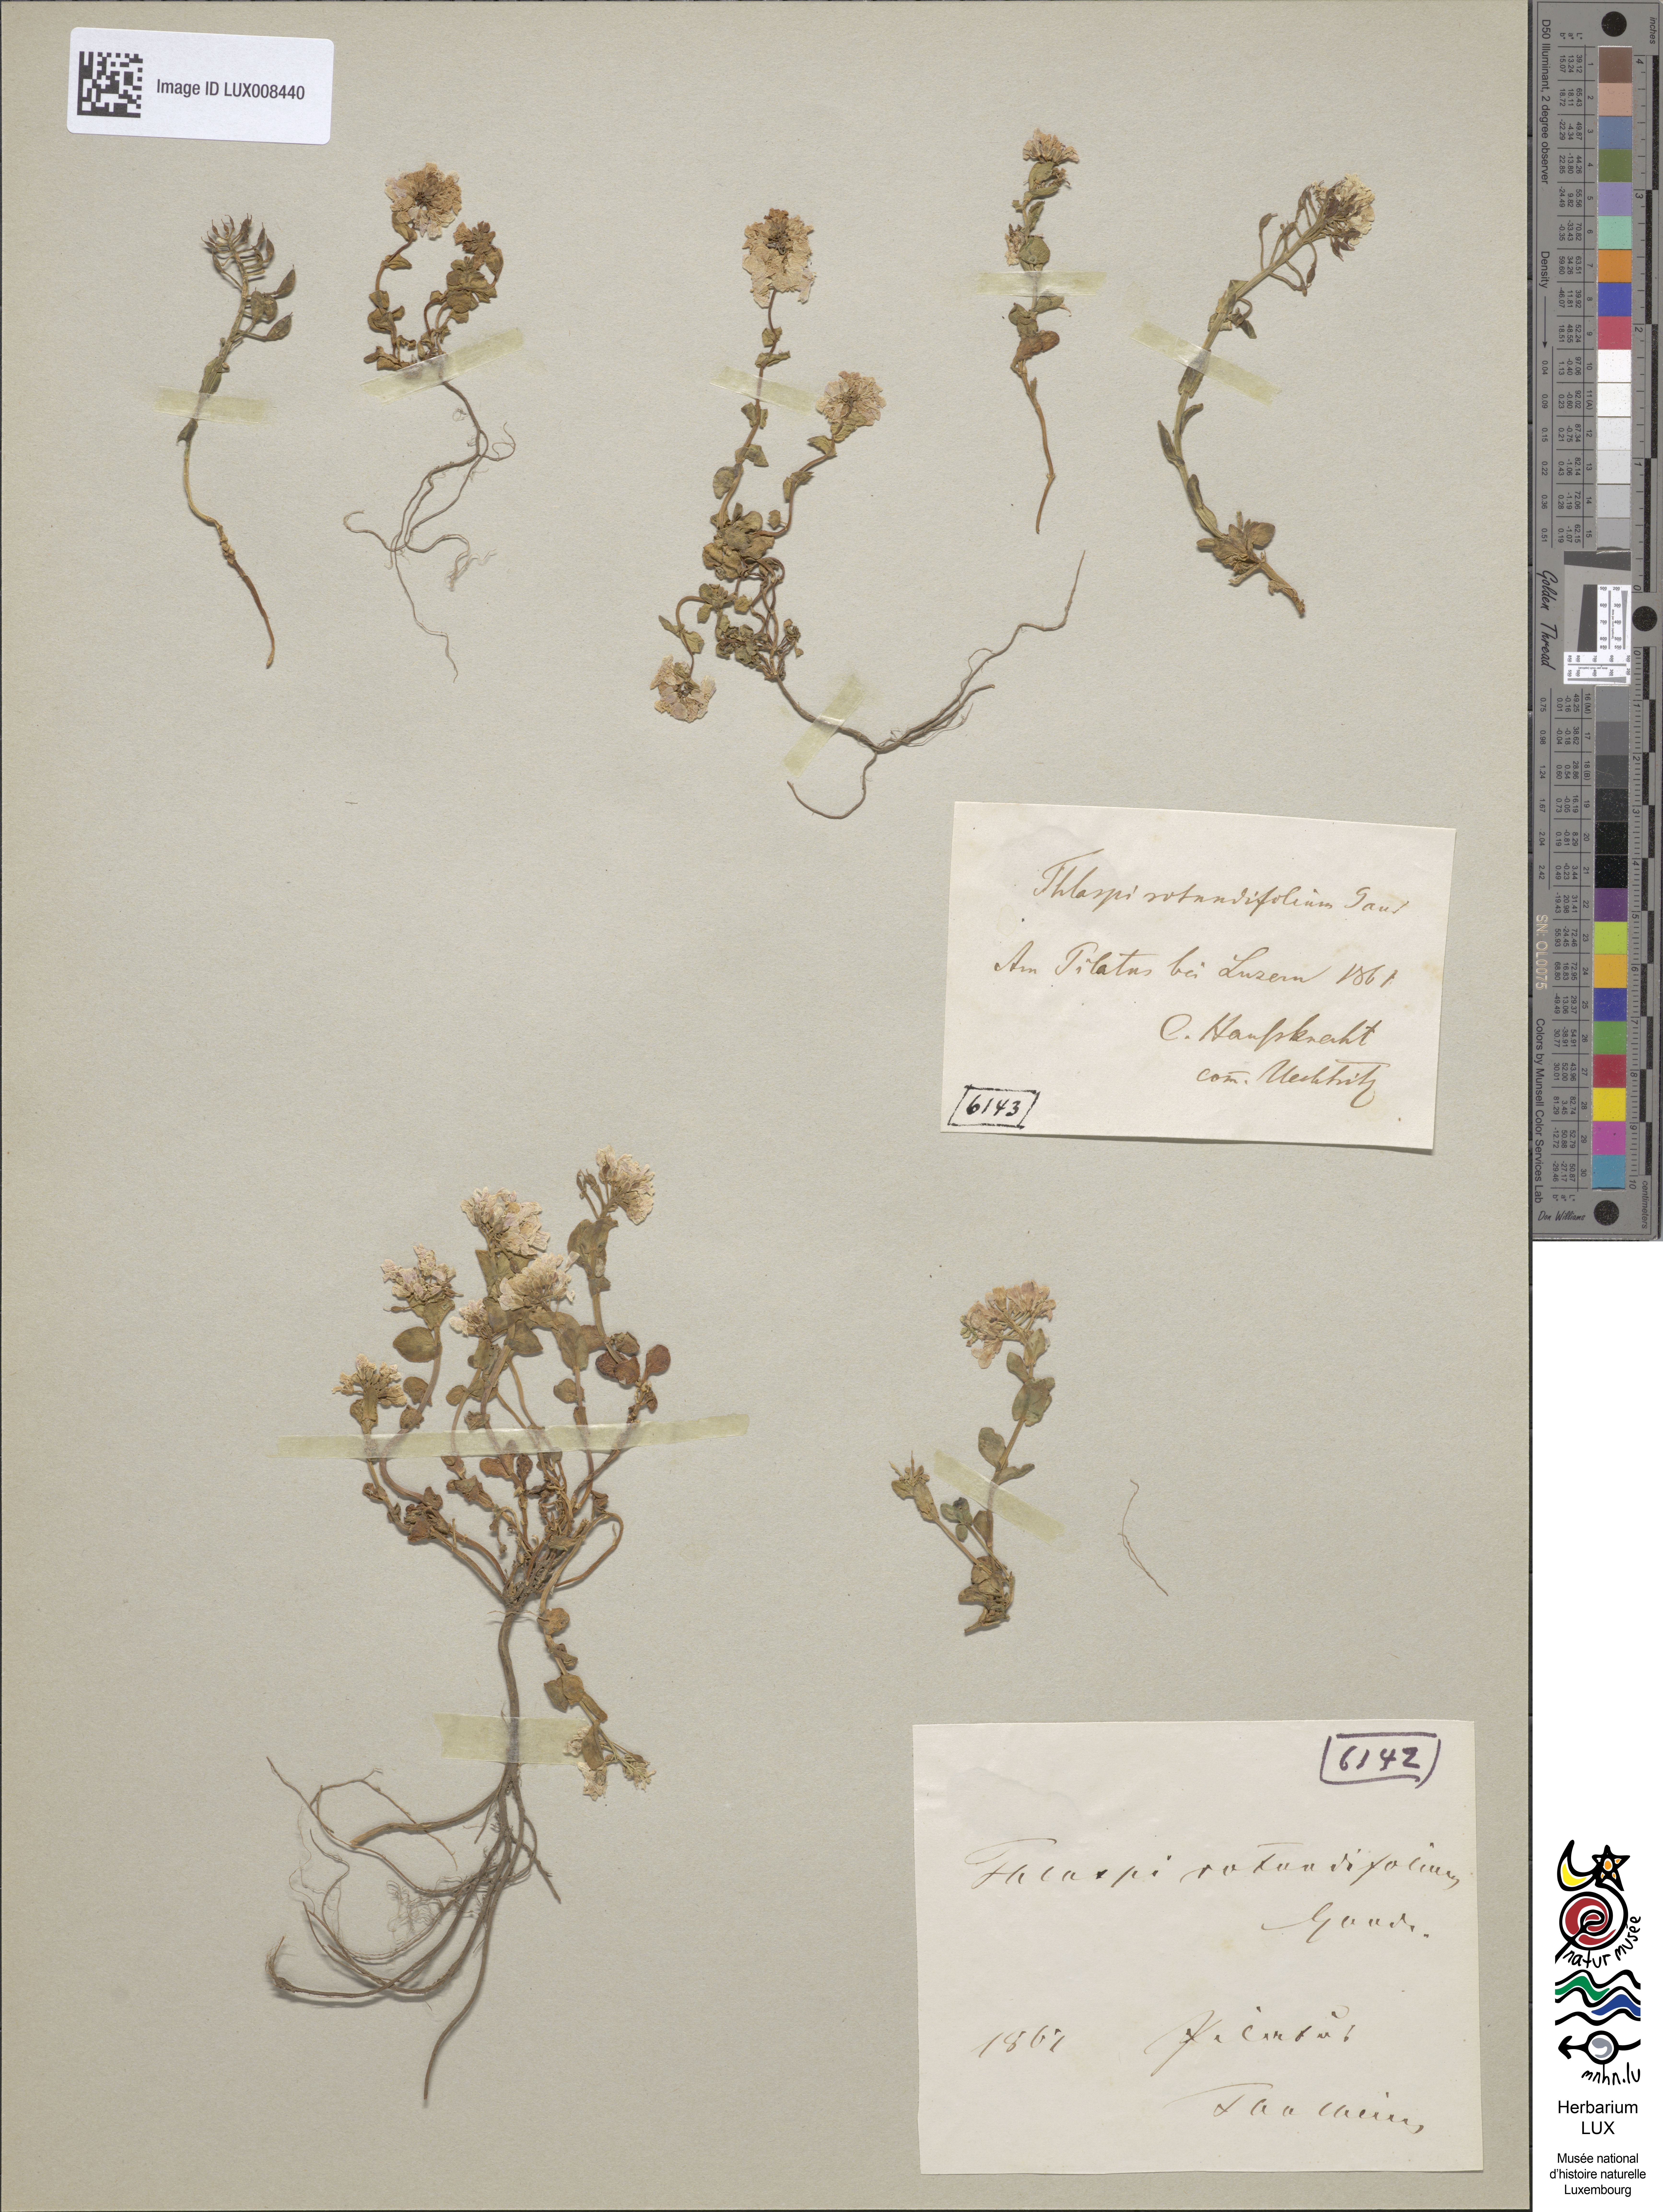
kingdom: Plantae
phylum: Tracheophyta
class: Magnoliopsida
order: Brassicales
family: Brassicaceae
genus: Noccaea
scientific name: Noccaea rotundifolia
